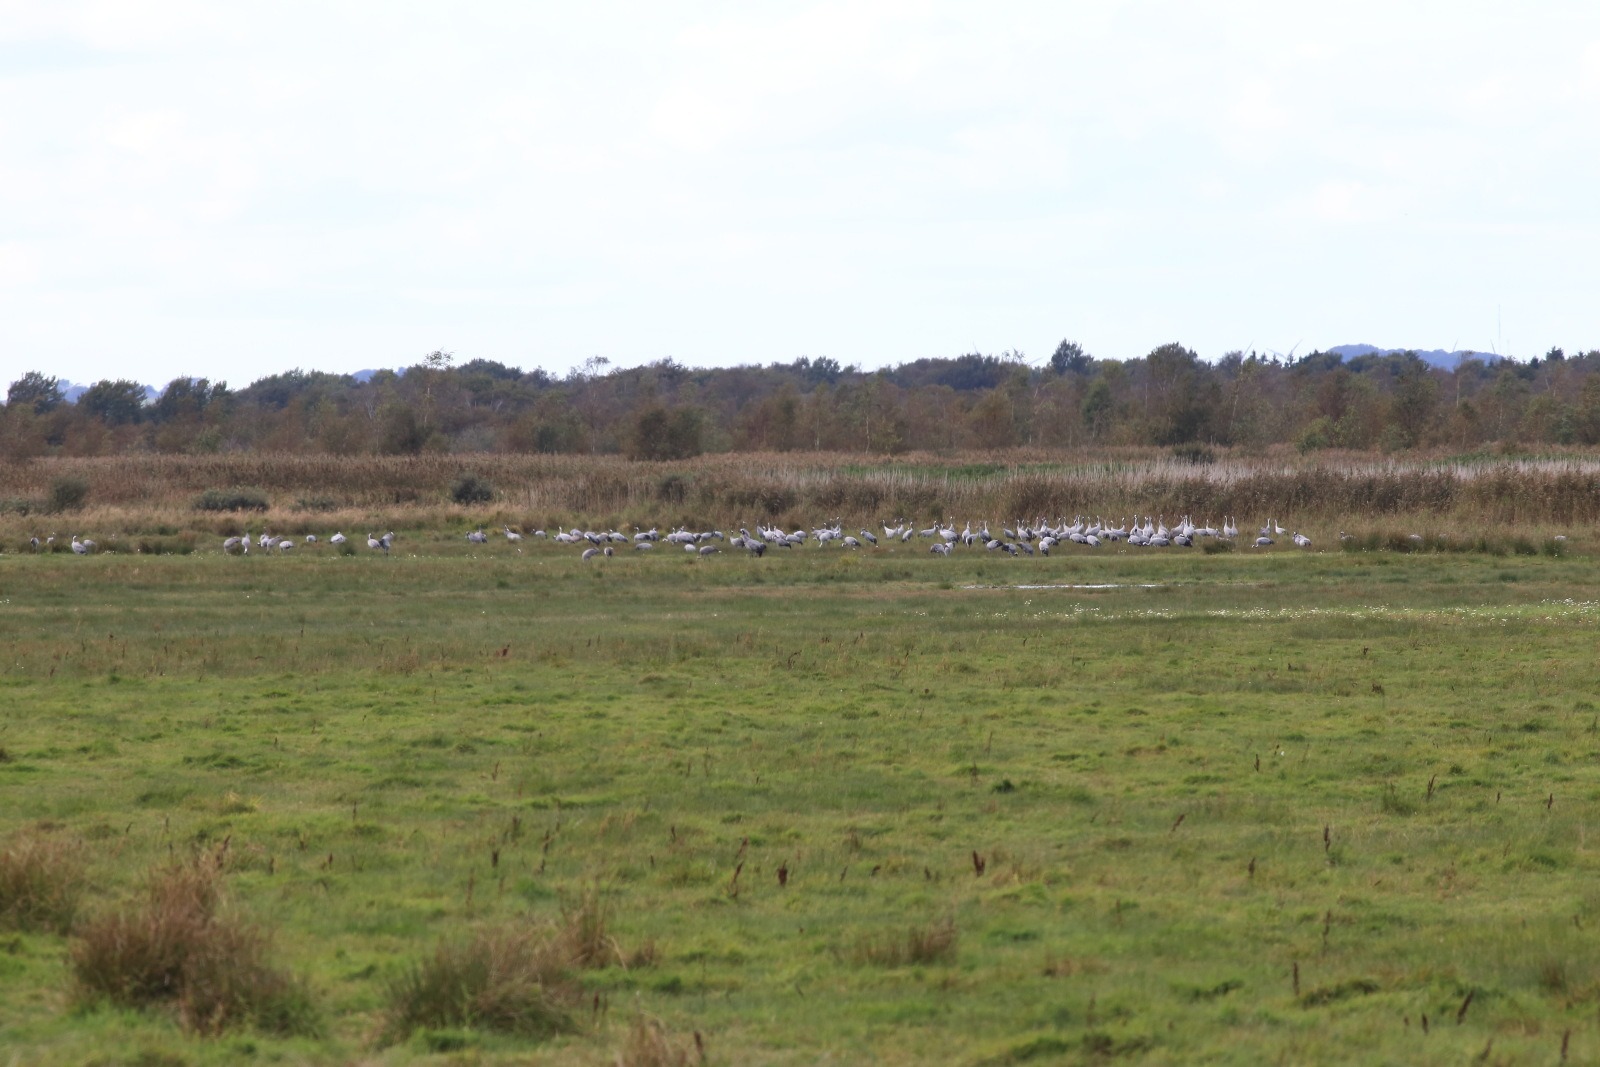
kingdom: Animalia
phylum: Chordata
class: Aves
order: Gruiformes
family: Gruidae
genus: Grus
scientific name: Grus grus
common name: Trane
